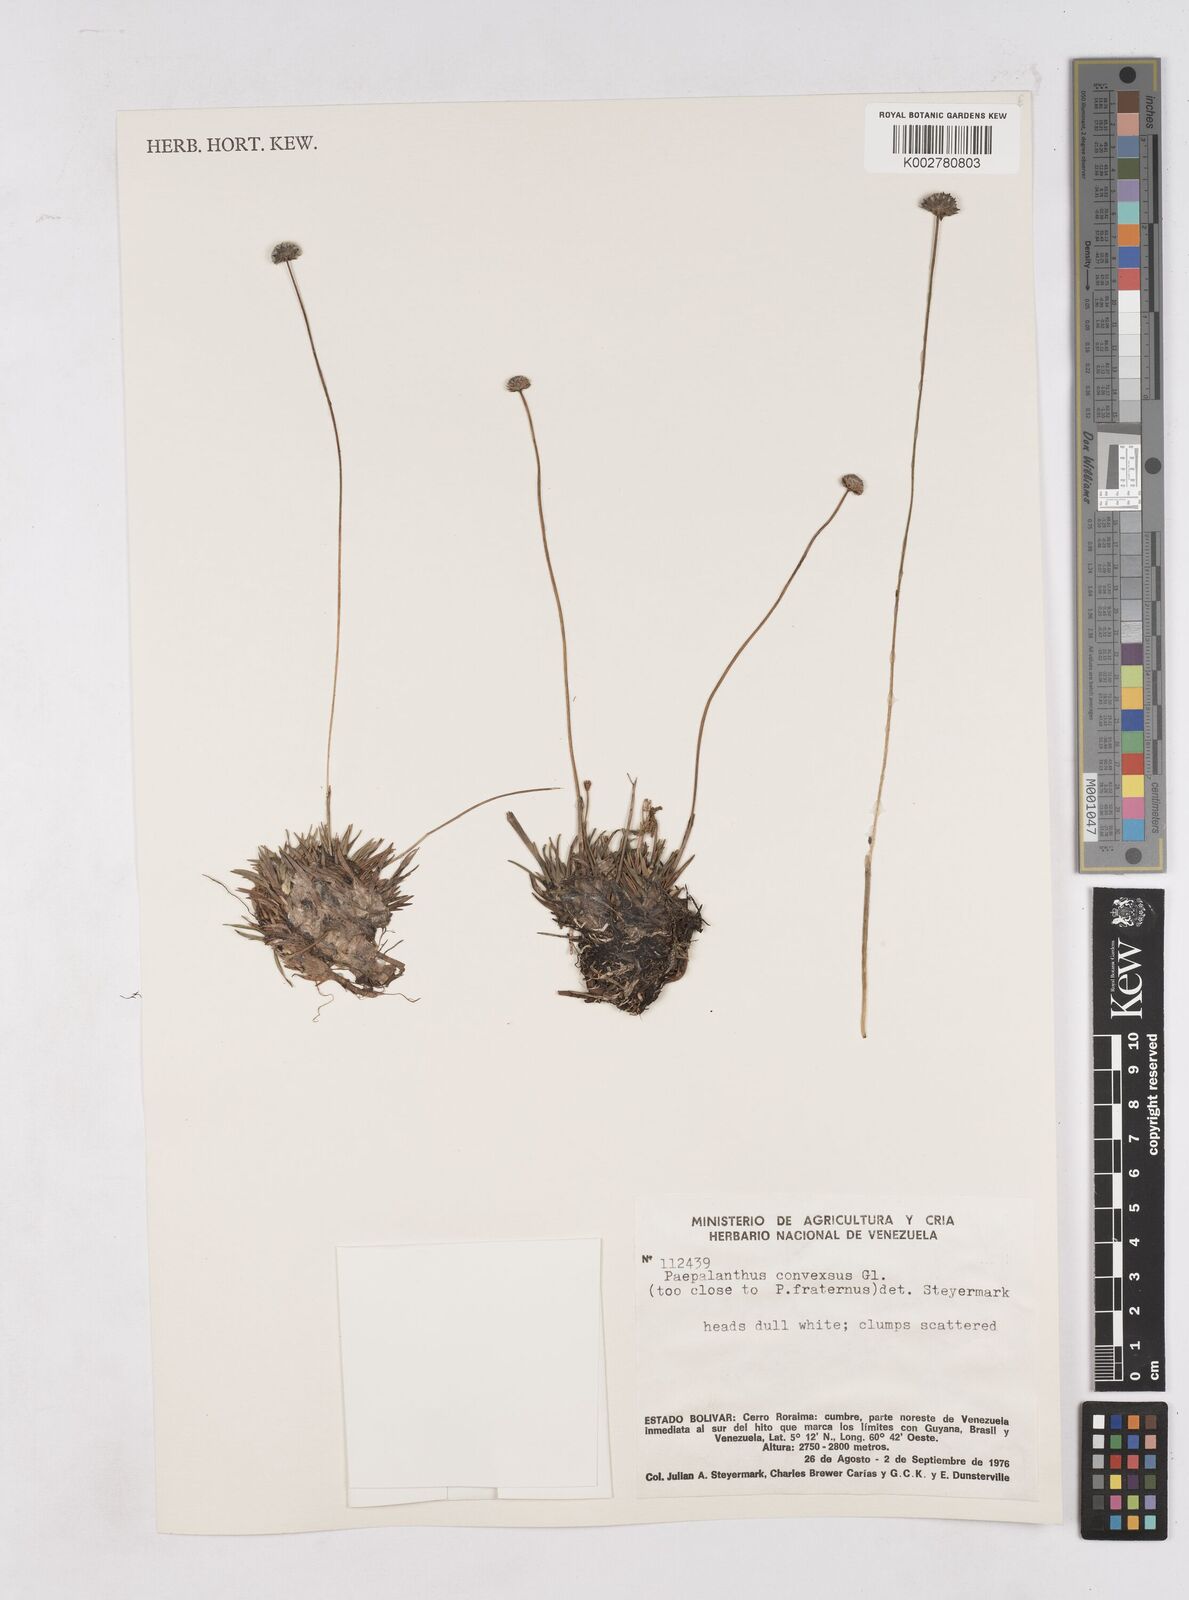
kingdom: Plantae
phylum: Tracheophyta
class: Liliopsida
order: Poales
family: Eriocaulaceae
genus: Paepalanthus
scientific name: Paepalanthus convexus
